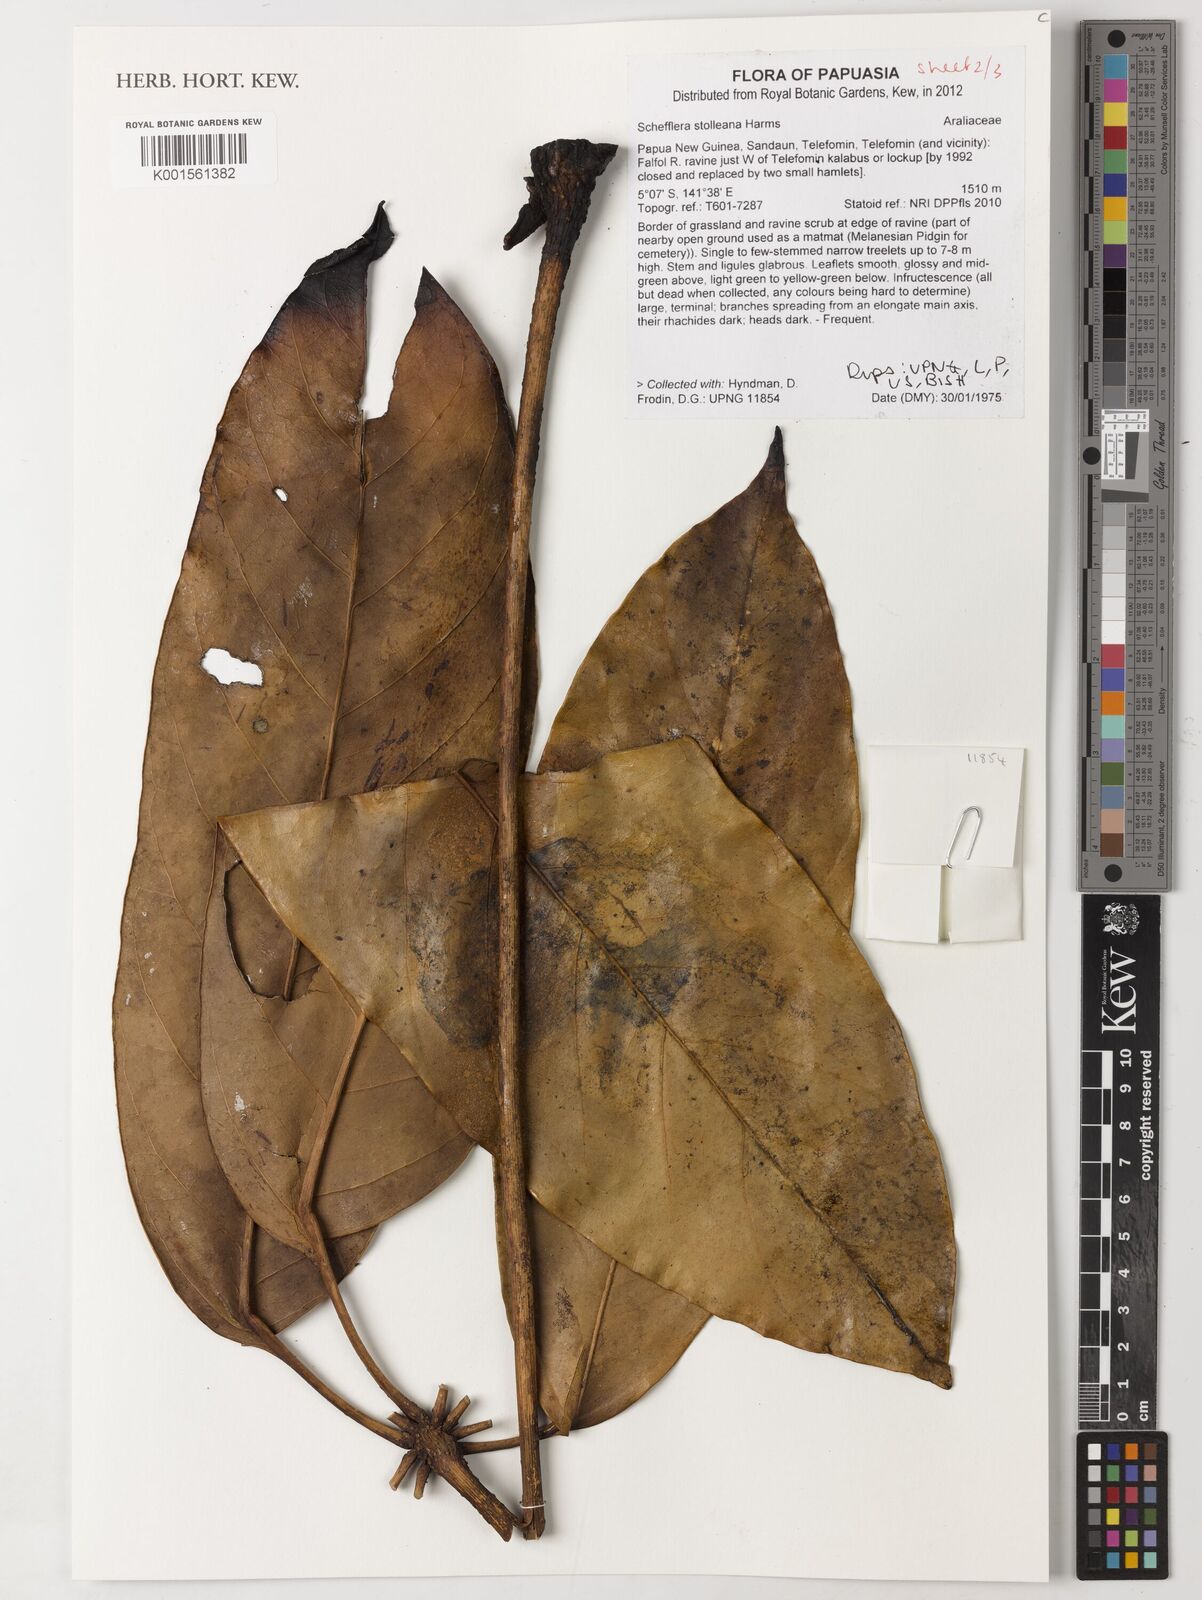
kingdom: Plantae
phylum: Tracheophyta
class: Magnoliopsida
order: Apiales
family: Araliaceae
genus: Heptapleurum
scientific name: Heptapleurum stolleanum
